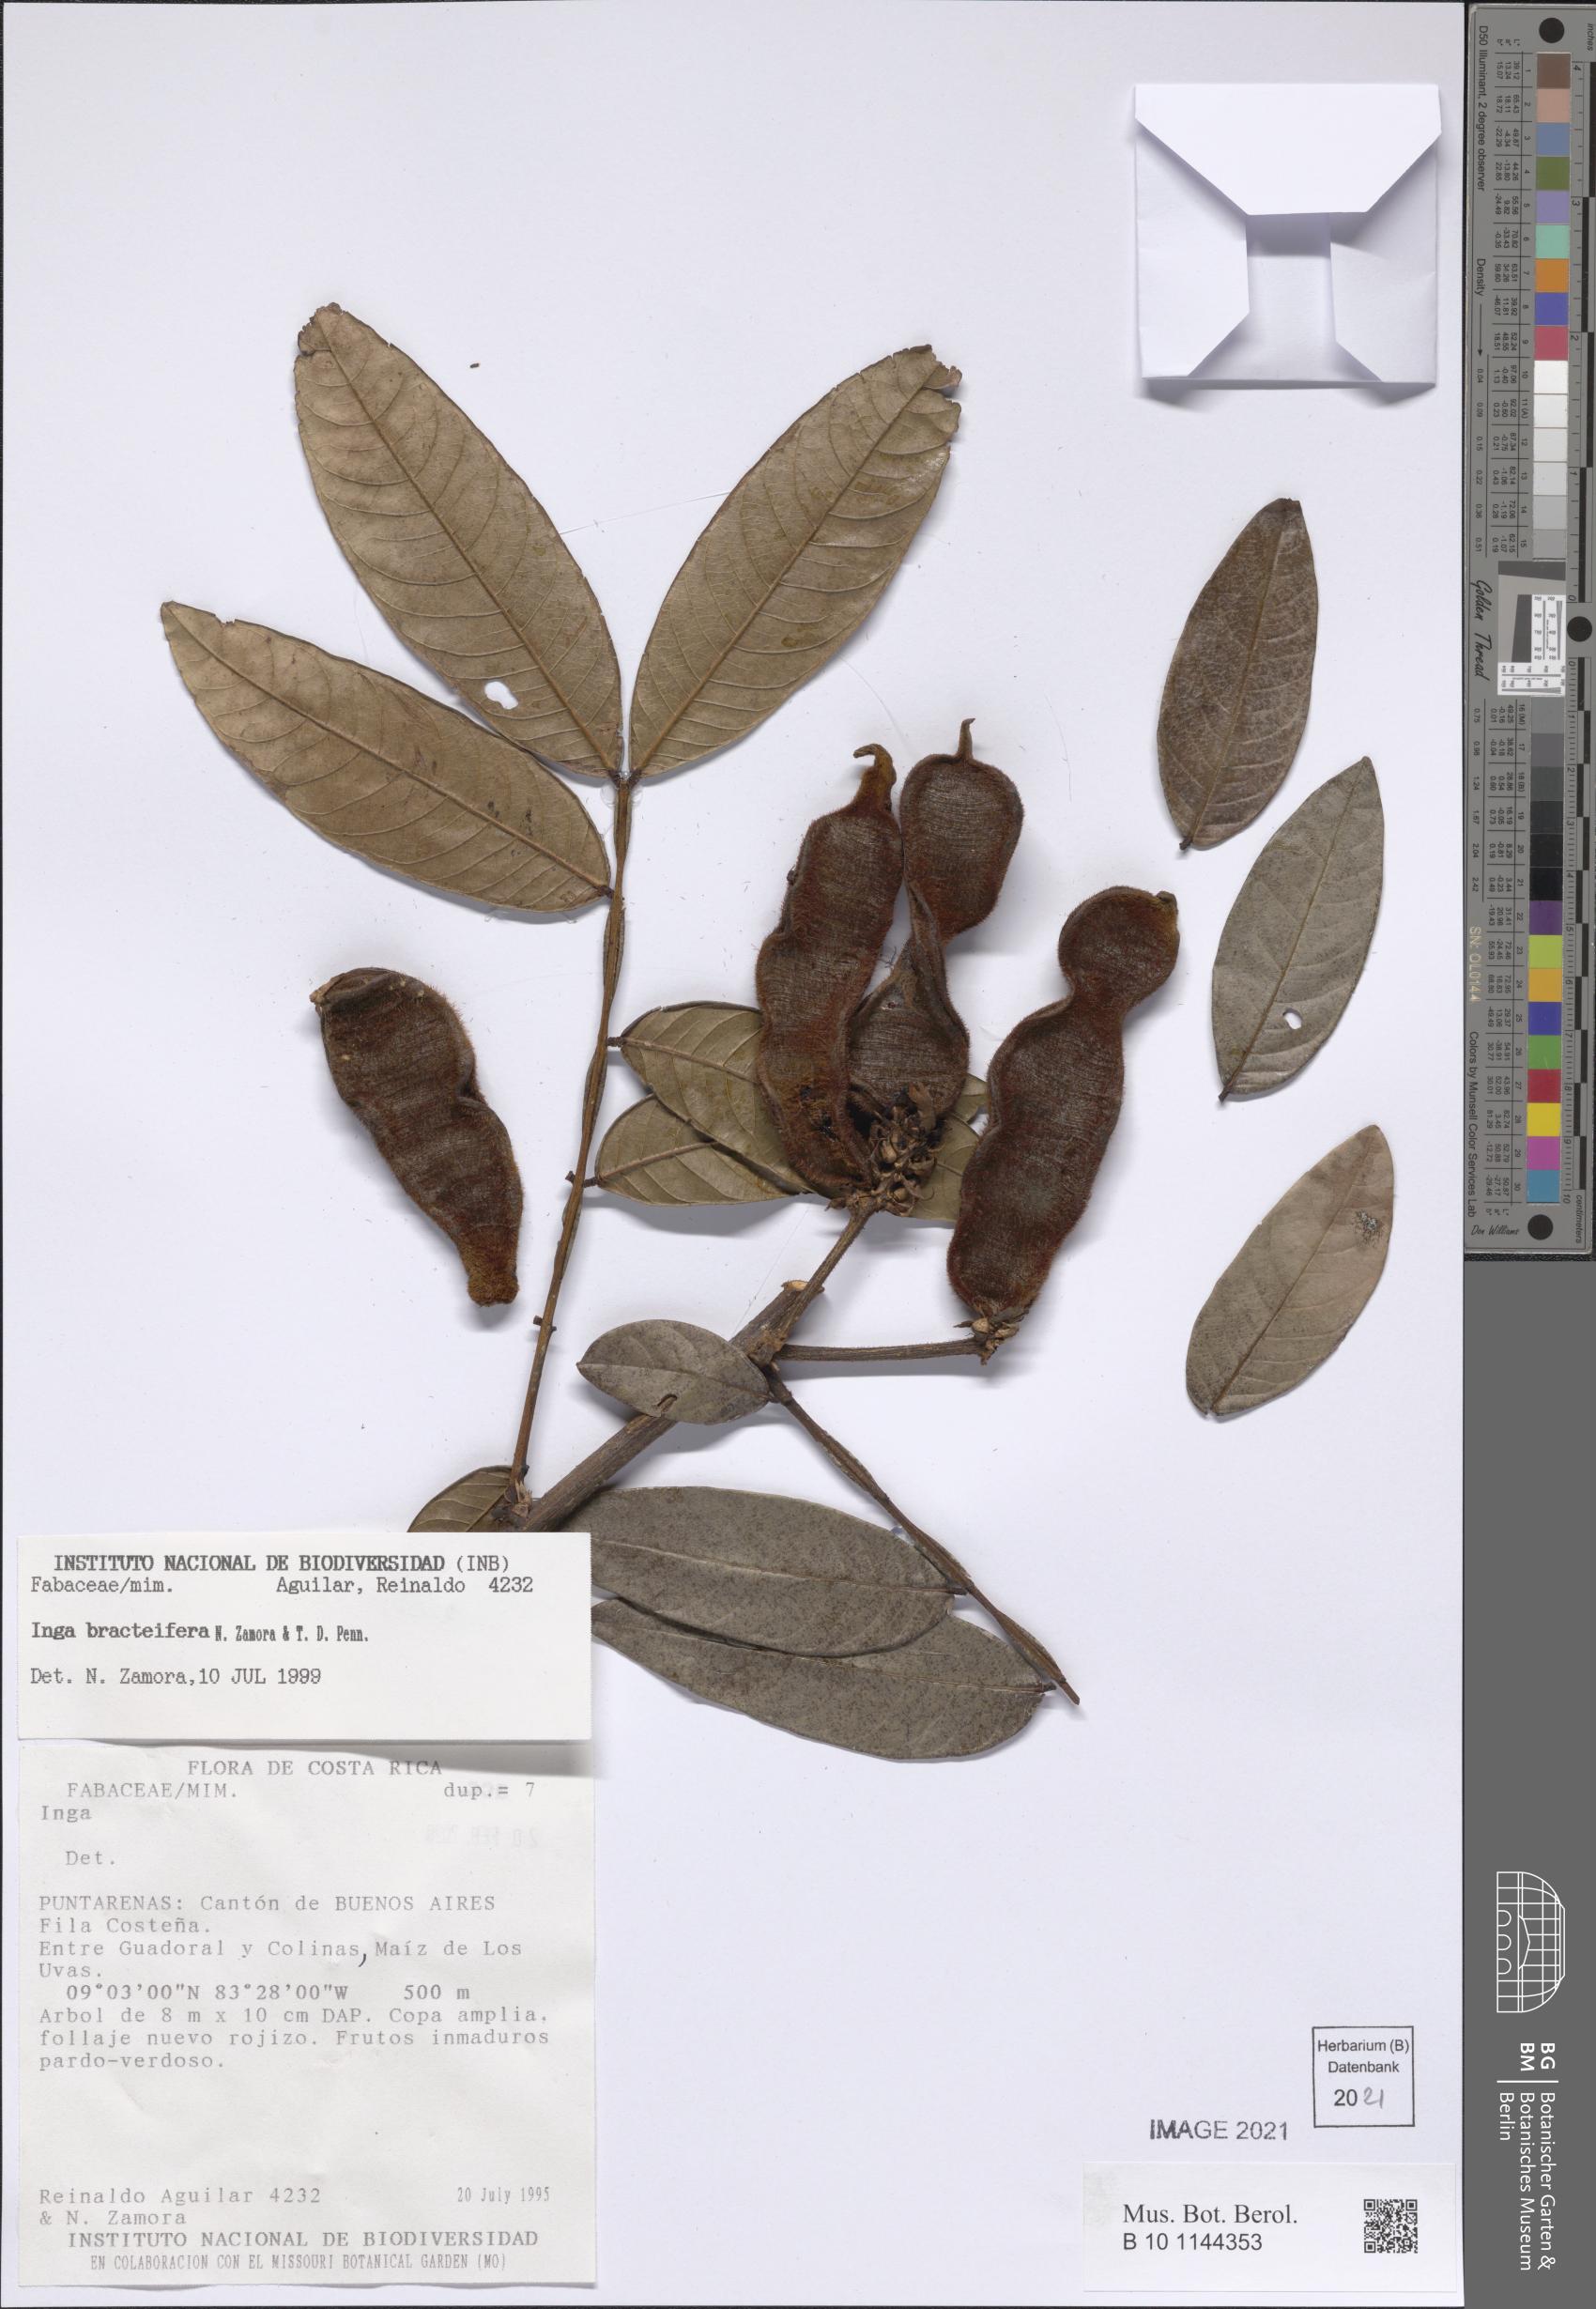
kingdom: Plantae
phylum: Tracheophyta
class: Magnoliopsida
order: Fabales
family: Fabaceae
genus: Inga
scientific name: Inga bracteifera
